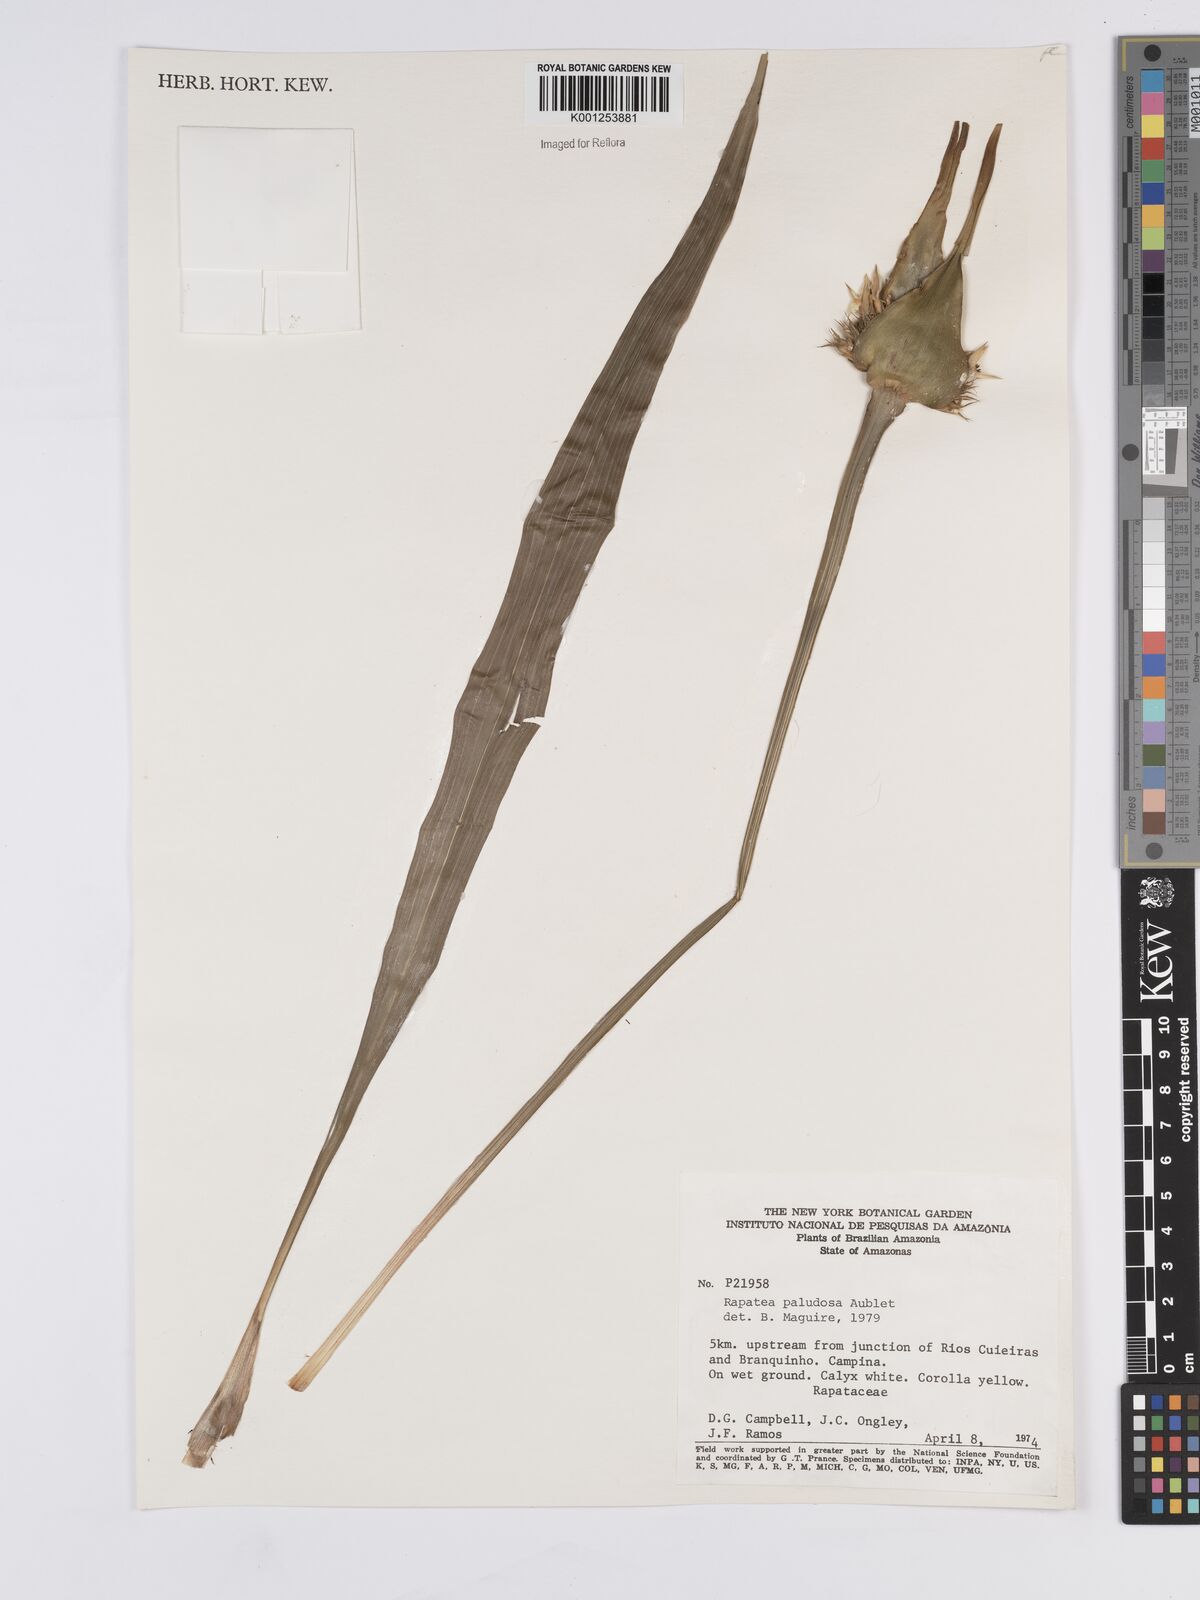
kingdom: Plantae
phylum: Tracheophyta
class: Liliopsida
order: Poales
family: Rapateaceae
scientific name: Rapateaceae
